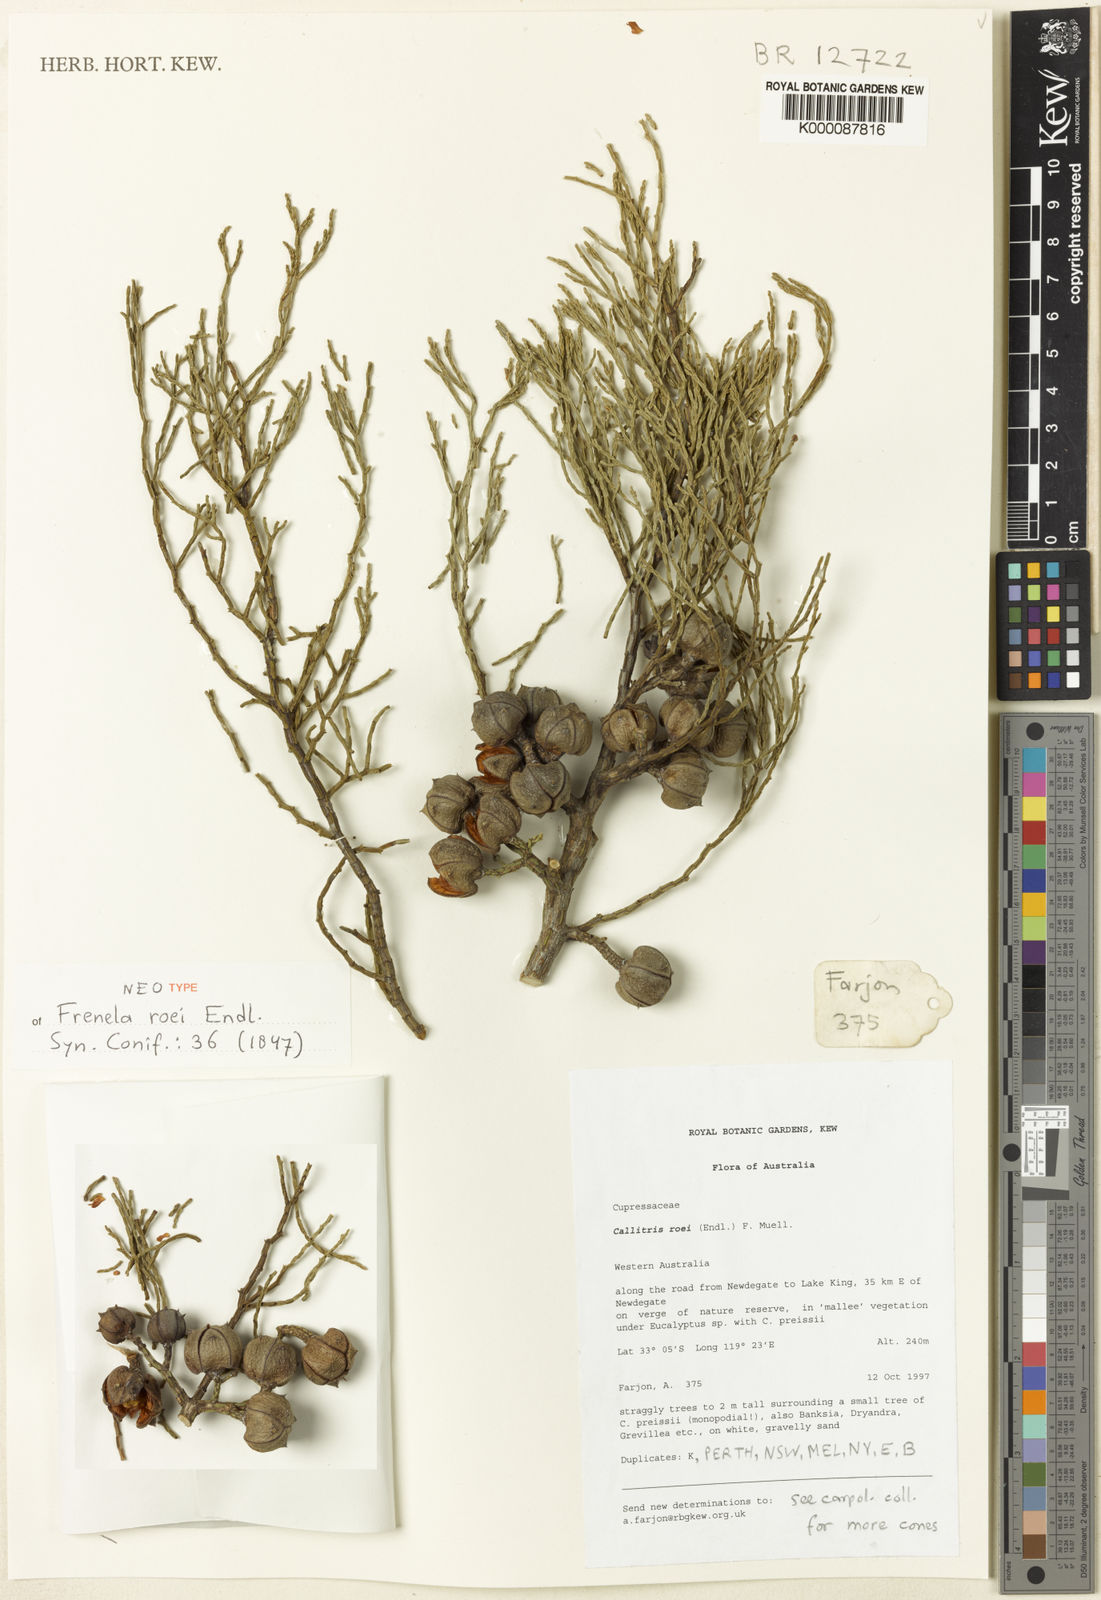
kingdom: Plantae
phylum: Tracheophyta
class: Pinopsida
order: Pinales
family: Cupressaceae
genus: Callitris
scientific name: Callitris roei
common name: Roe's cypress-pine
